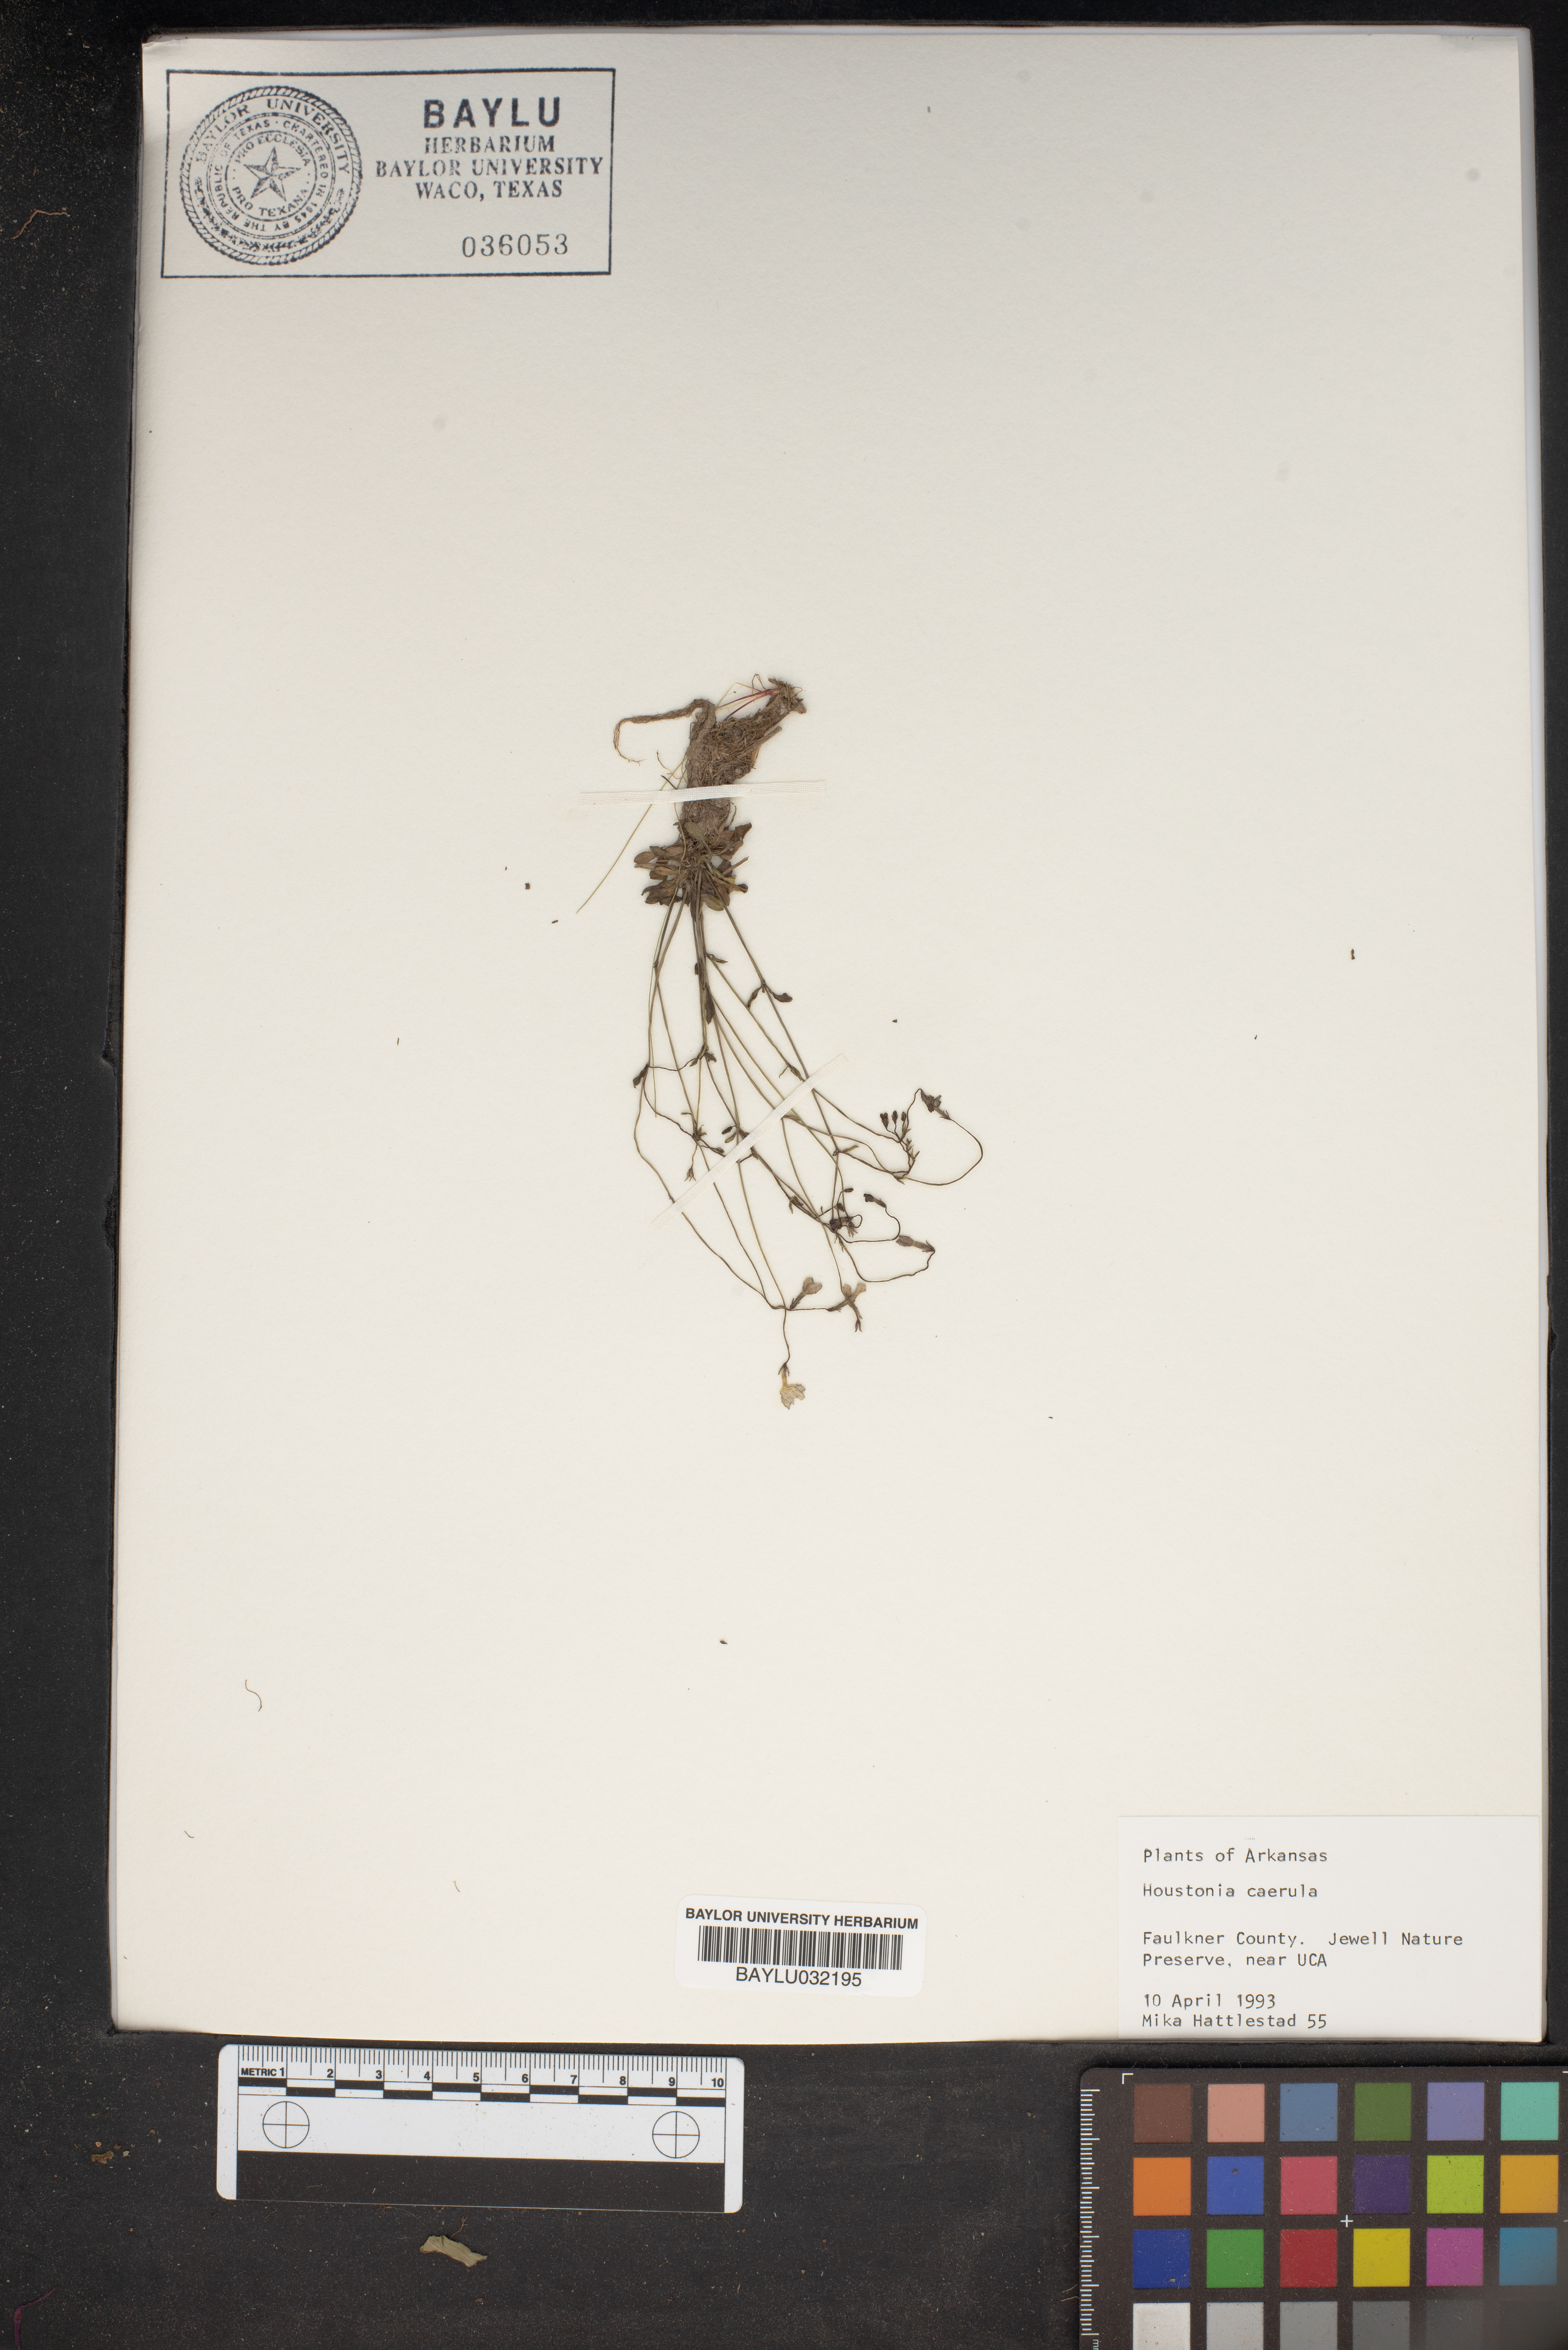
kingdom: Plantae
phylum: Tracheophyta
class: Magnoliopsida
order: Gentianales
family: Rubiaceae
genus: Houstonia
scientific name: Houstonia caerulea
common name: Bluets
